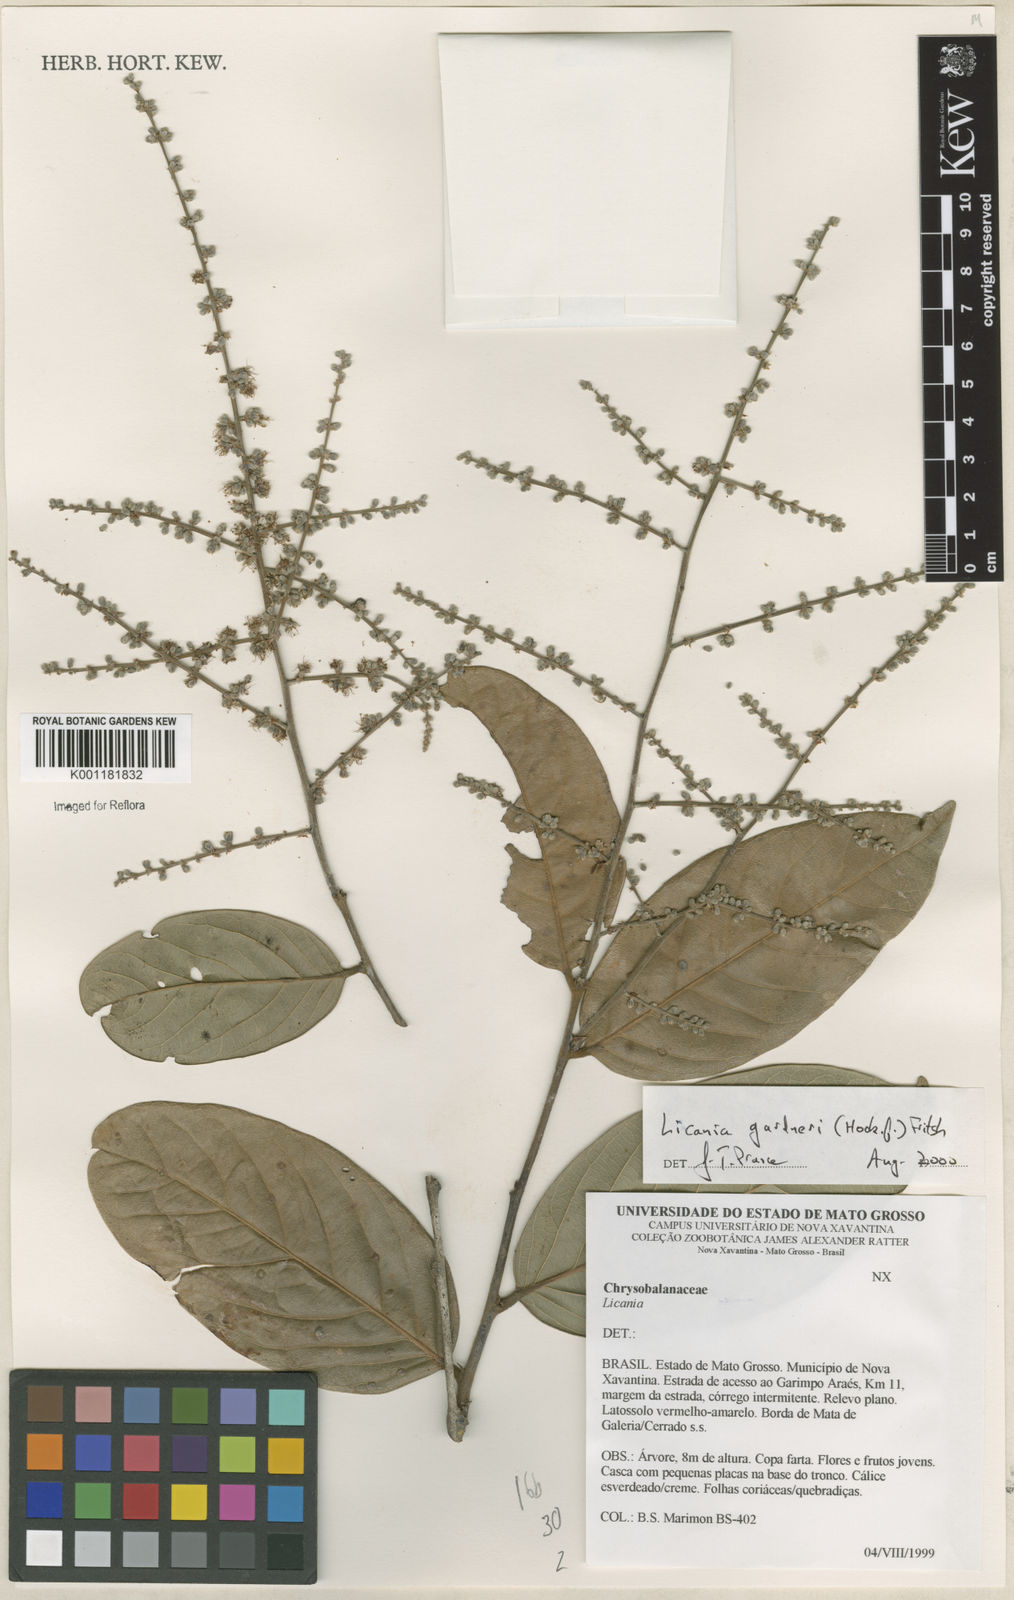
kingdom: Plantae
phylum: Tracheophyta
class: Magnoliopsida
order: Malpighiales
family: Chrysobalanaceae
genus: Leptobalanus
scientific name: Leptobalanus gardneri
